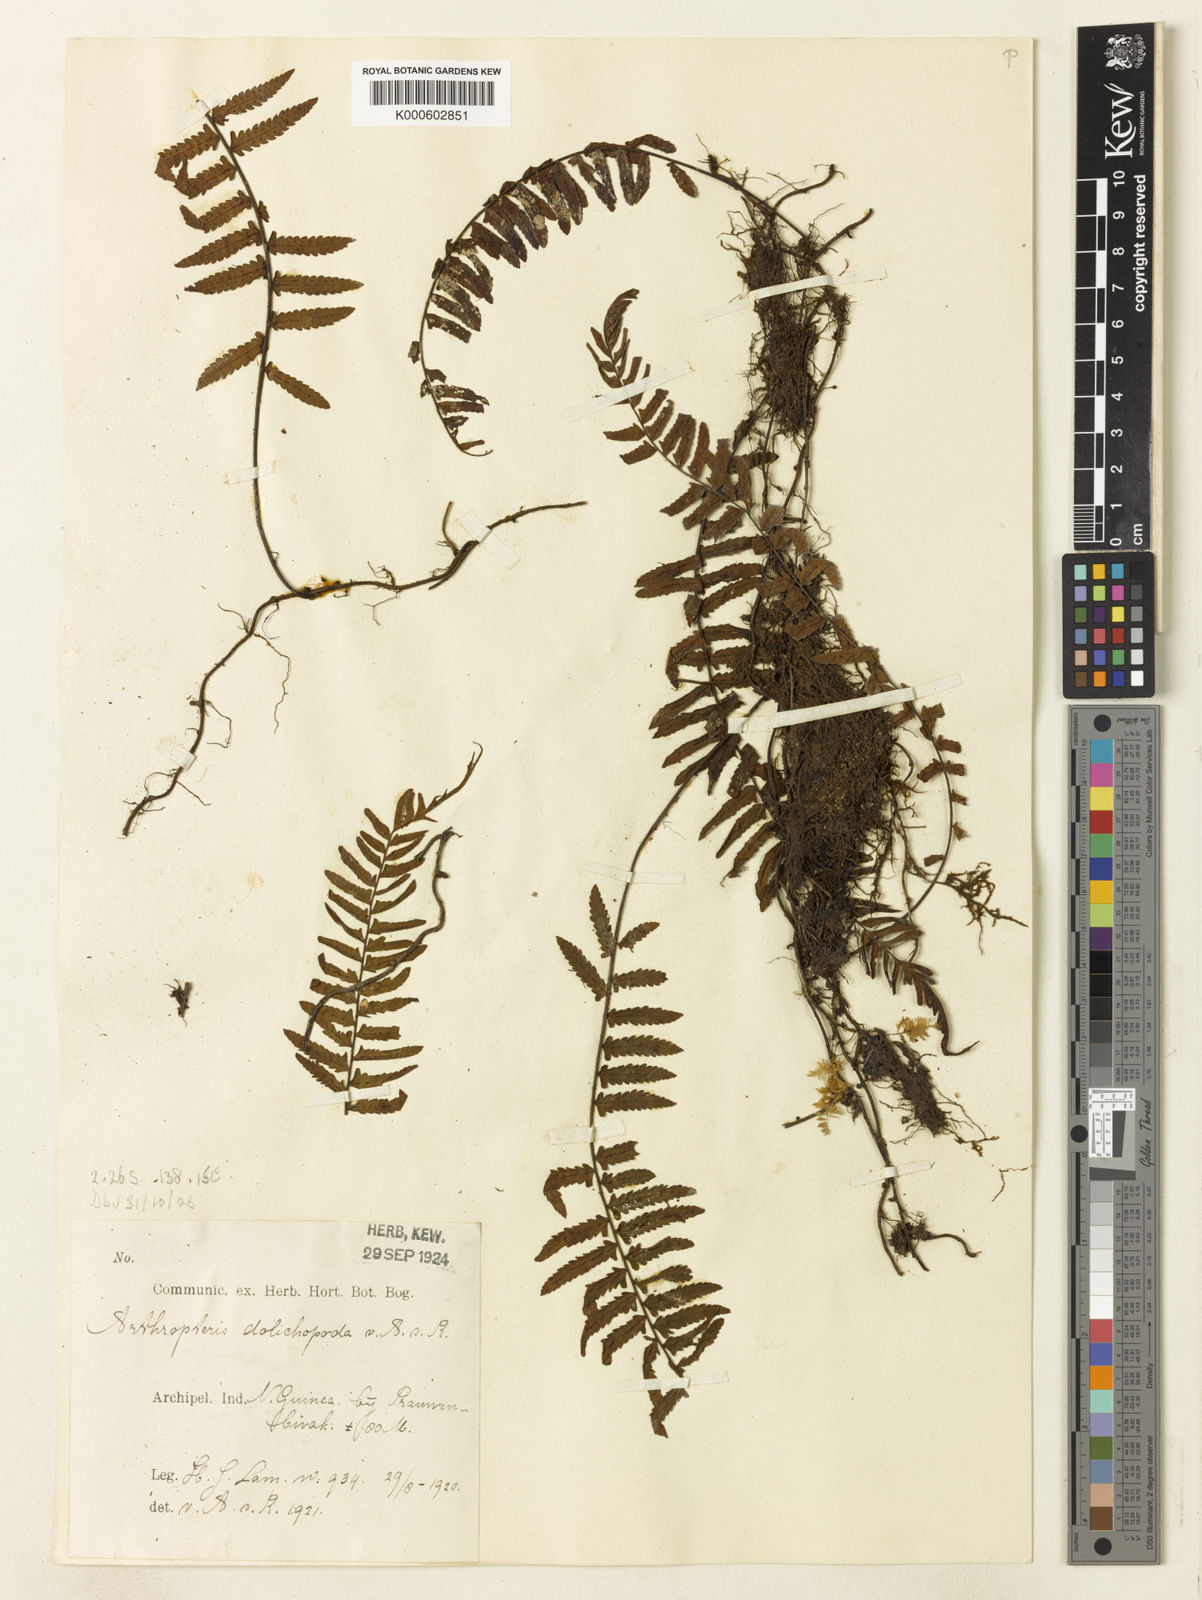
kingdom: Plantae
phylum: Tracheophyta
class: Polypodiopsida
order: Polypodiales
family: Tectariaceae
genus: Arthropteris
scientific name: Arthropteris articulata
